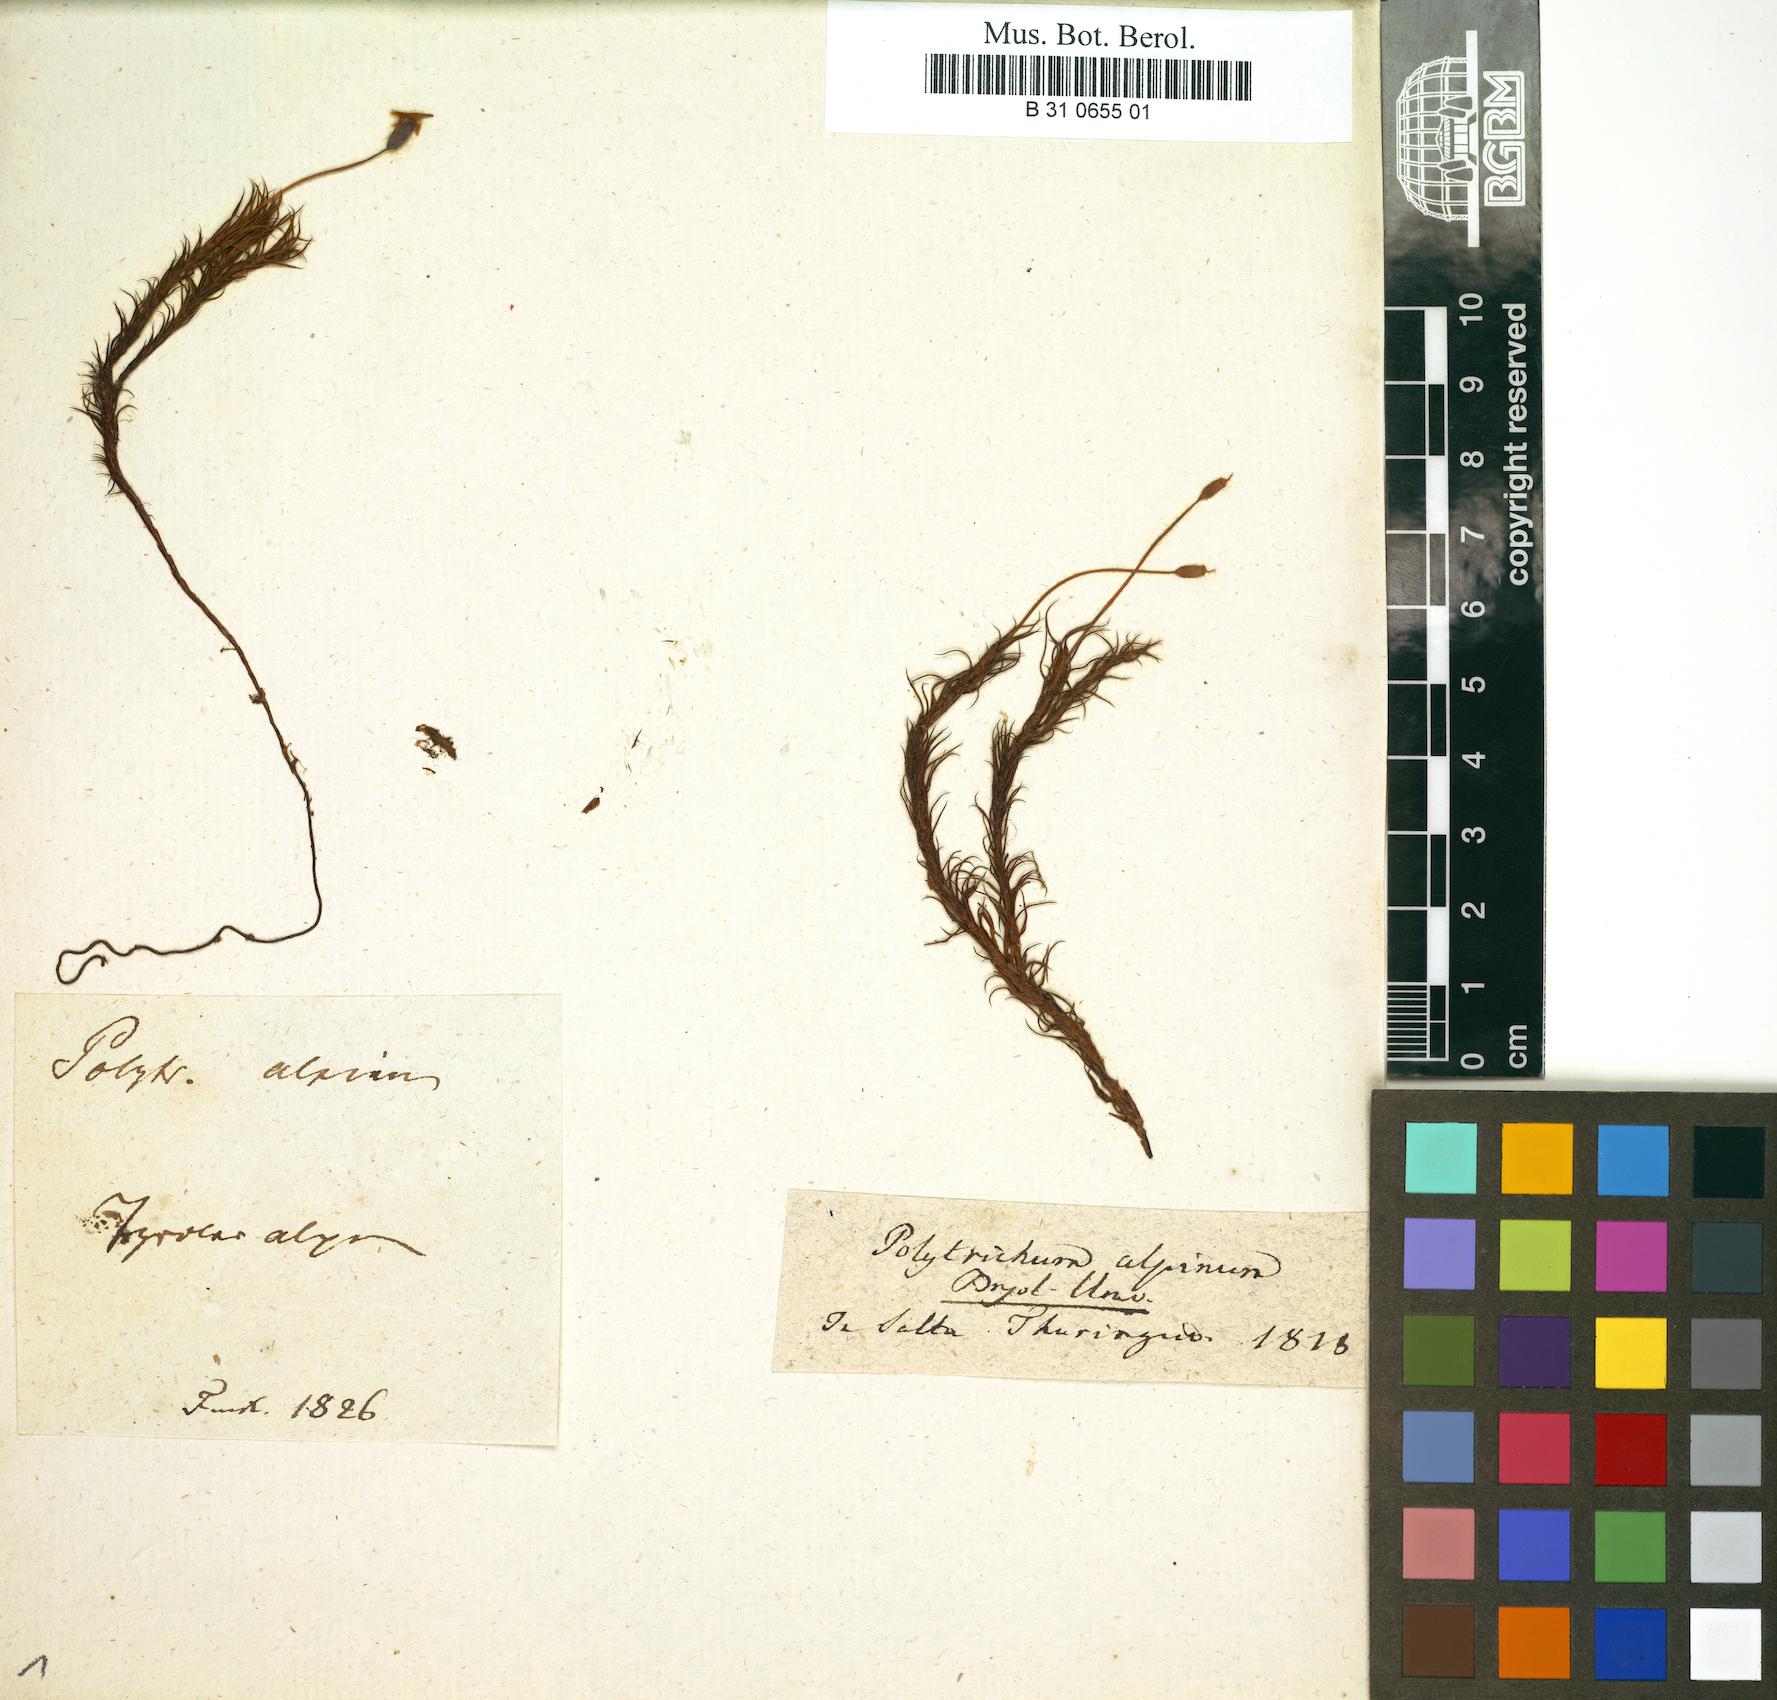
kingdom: Plantae
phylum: Bryophyta
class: Polytrichopsida
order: Polytrichales
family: Polytrichaceae
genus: Polytrichastrum
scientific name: Polytrichastrum alpinum
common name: Alpine haircap
